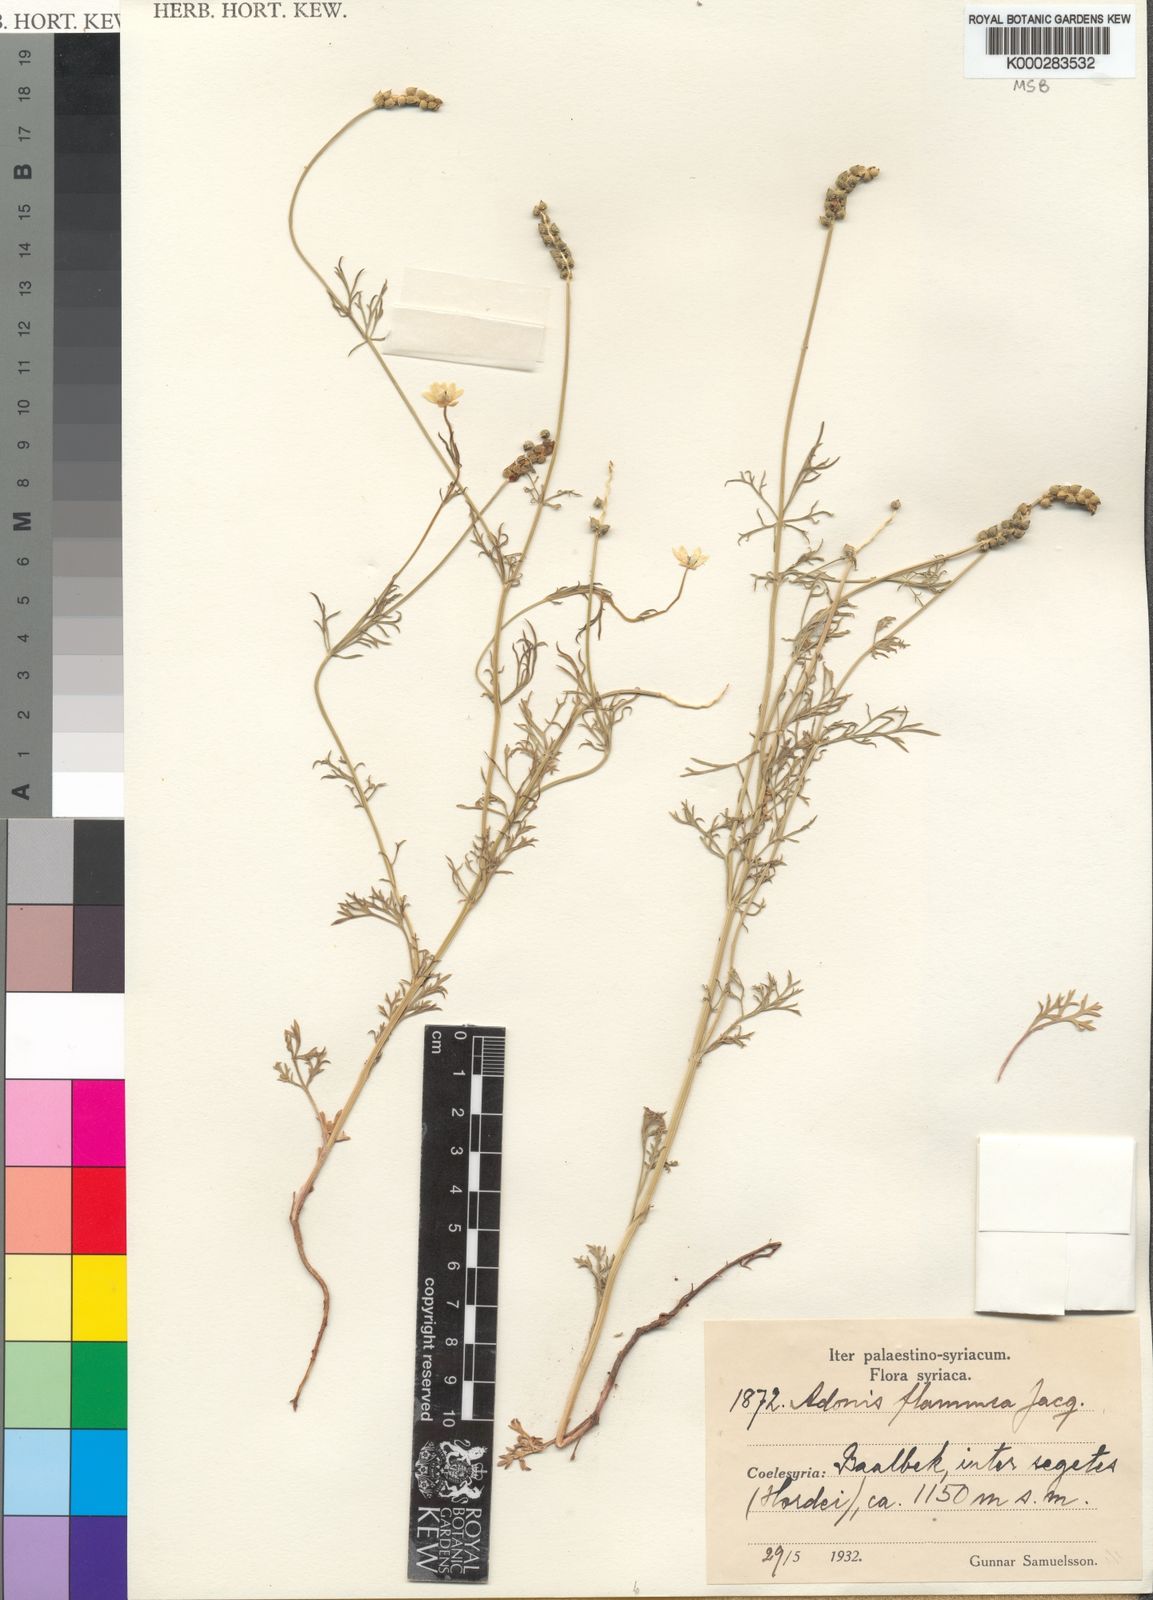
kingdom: Plantae
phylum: Tracheophyta
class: Magnoliopsida
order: Ranunculales
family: Ranunculaceae
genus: Adonis
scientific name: Adonis flammea
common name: Large pheasant's-eye
